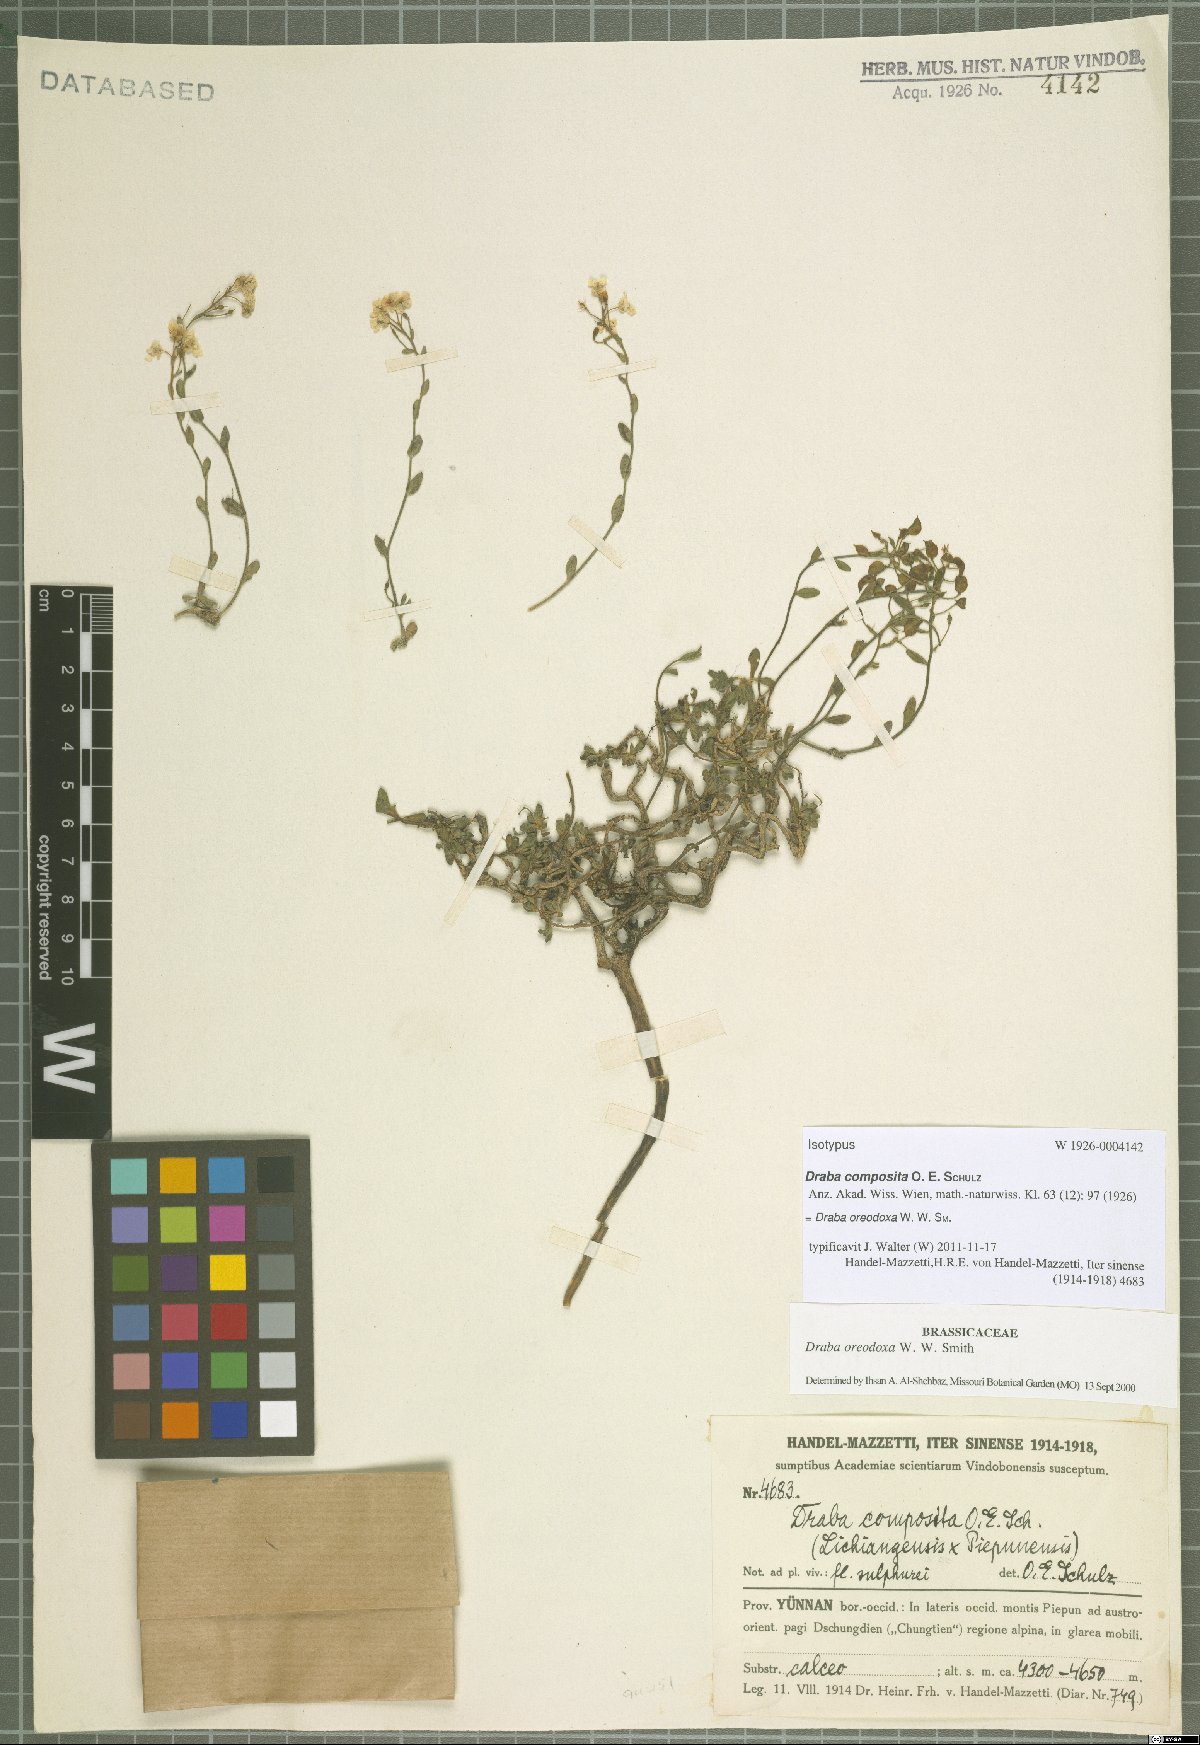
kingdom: Plantae
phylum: Tracheophyta
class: Magnoliopsida
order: Brassicales
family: Brassicaceae
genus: Draba
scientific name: Draba oreodoxa
